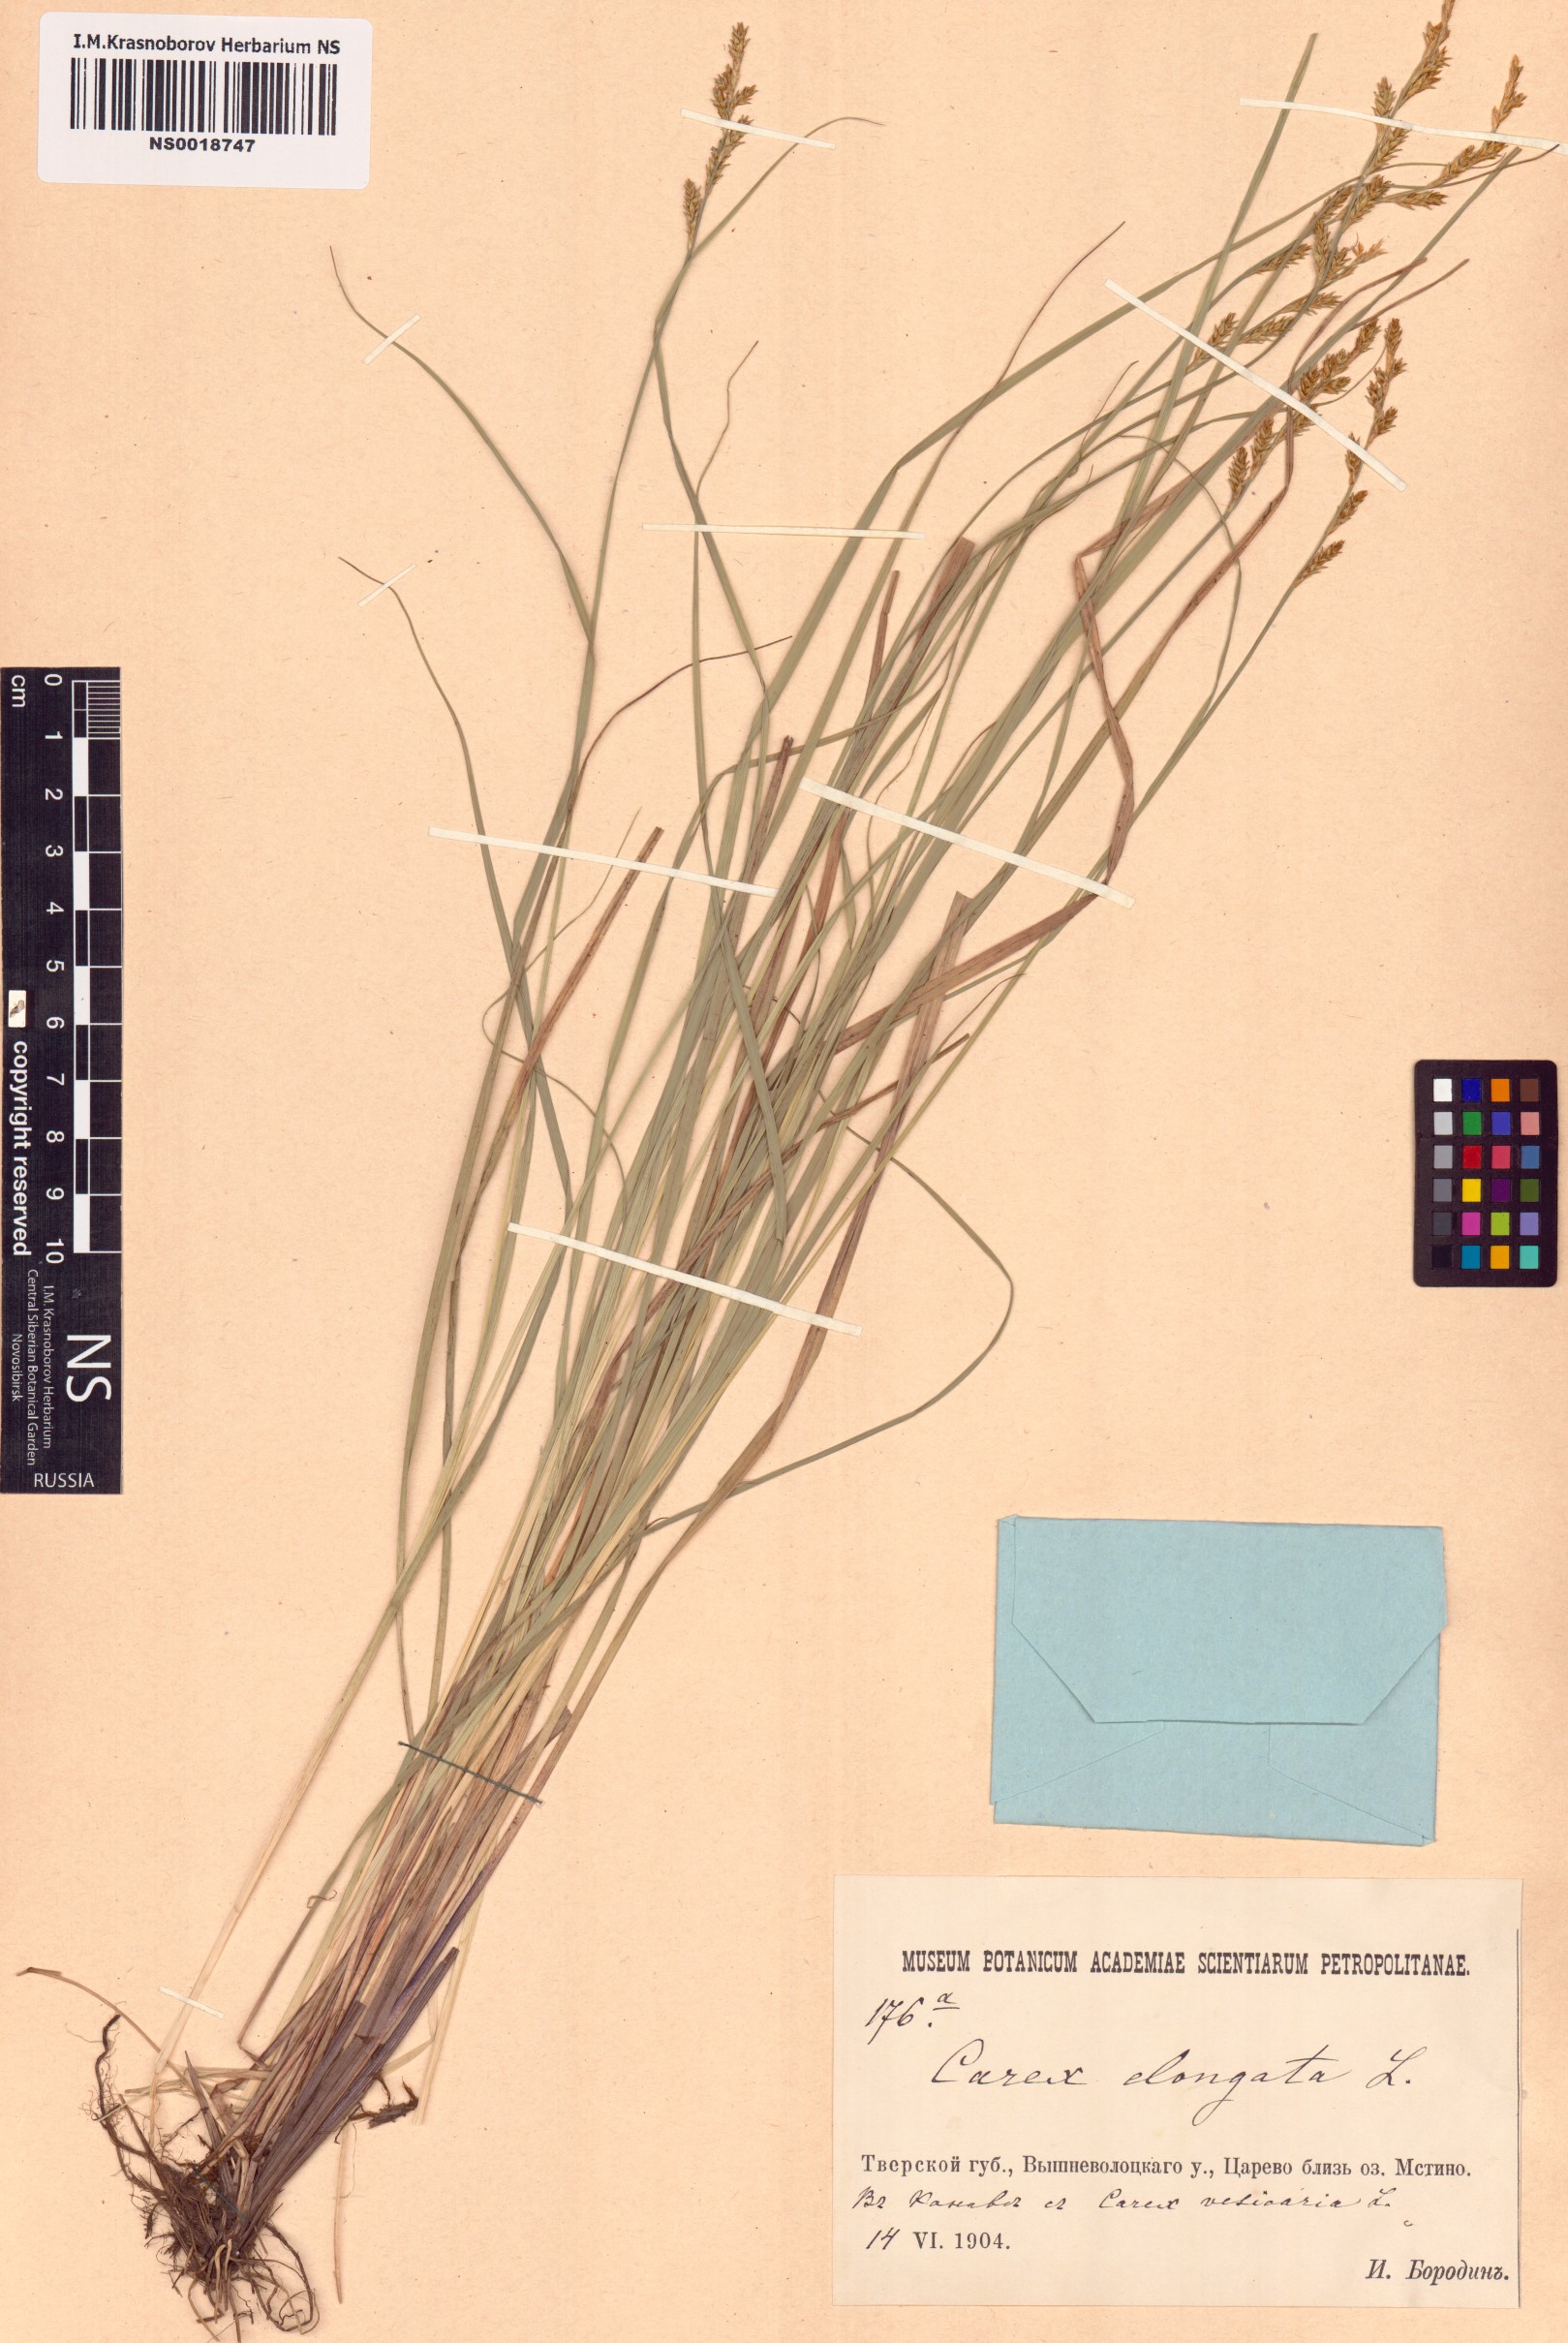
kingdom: Plantae
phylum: Tracheophyta
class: Liliopsida
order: Poales
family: Cyperaceae
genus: Carex
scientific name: Carex elongata
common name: Elongated sedge
